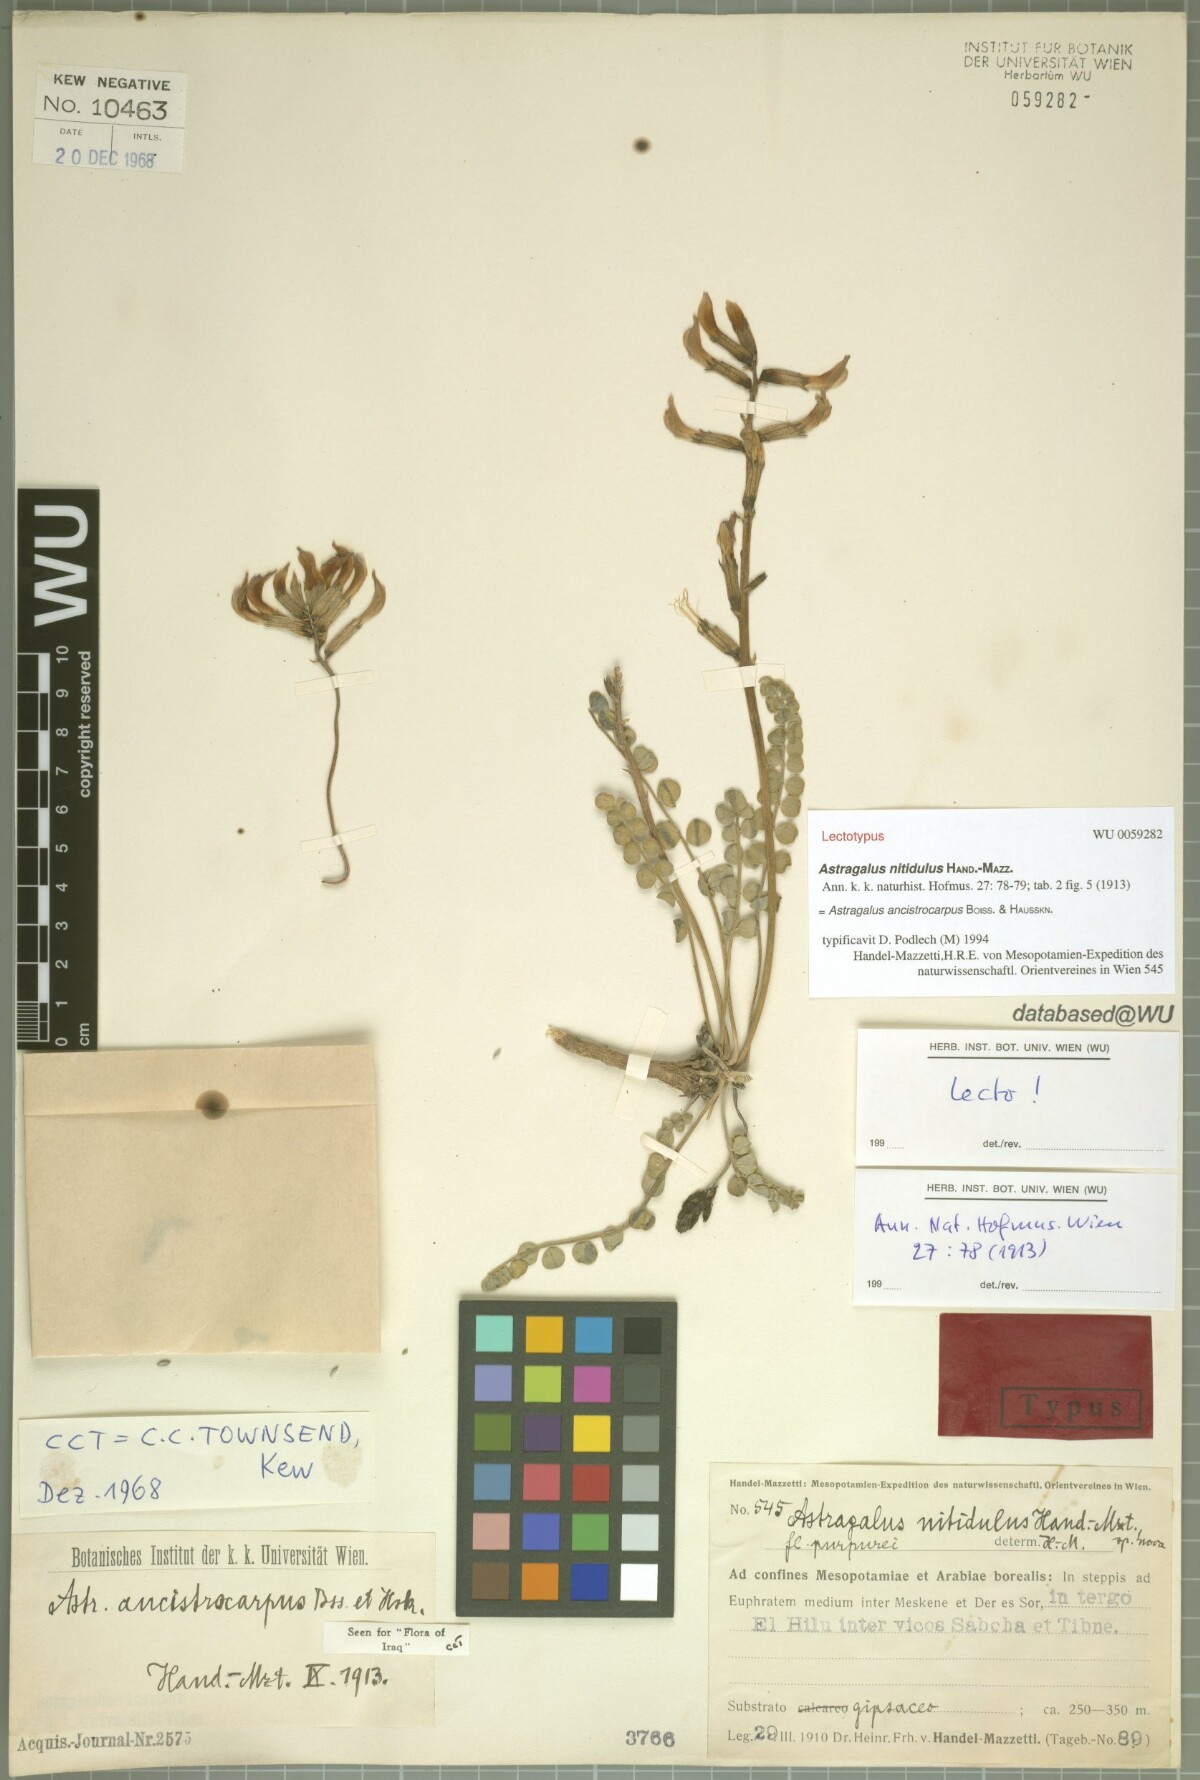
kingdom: Plantae
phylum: Tracheophyta
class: Magnoliopsida
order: Fabales
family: Fabaceae
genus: Astragalus
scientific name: Astragalus ancistrocarpus
